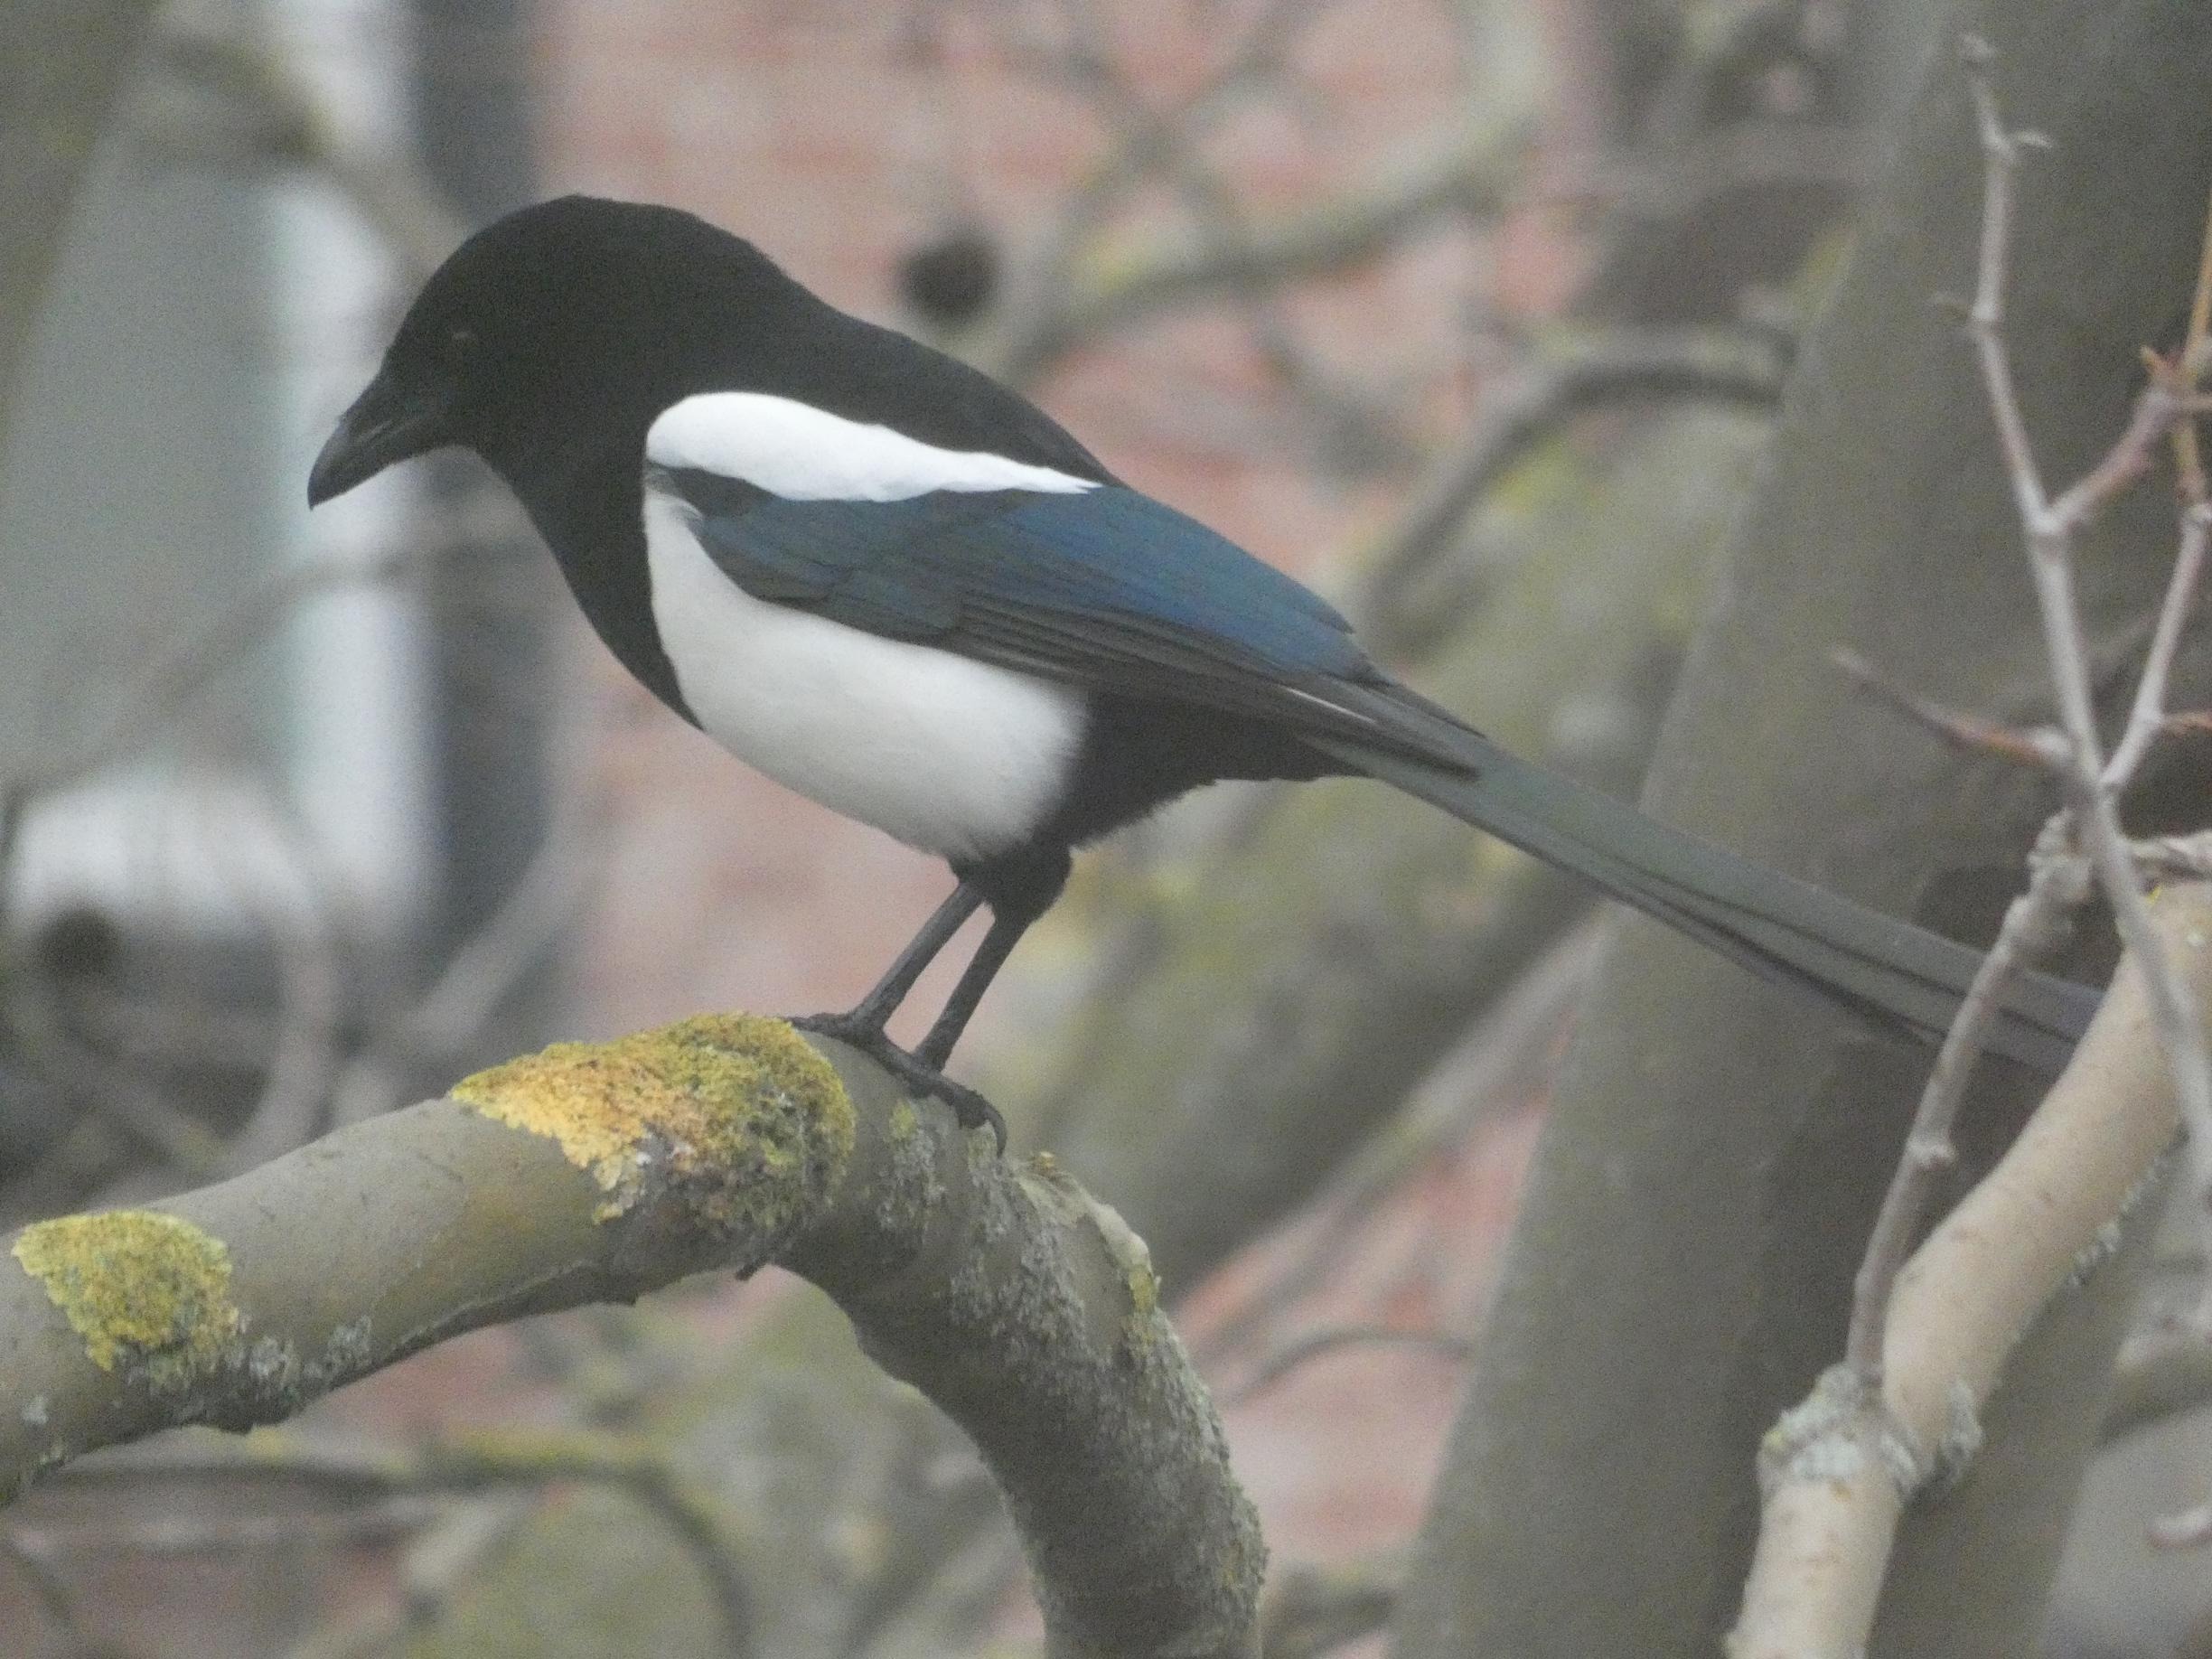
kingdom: Animalia
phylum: Chordata
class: Aves
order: Passeriformes
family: Corvidae
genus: Pica
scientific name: Pica pica
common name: Husskade
